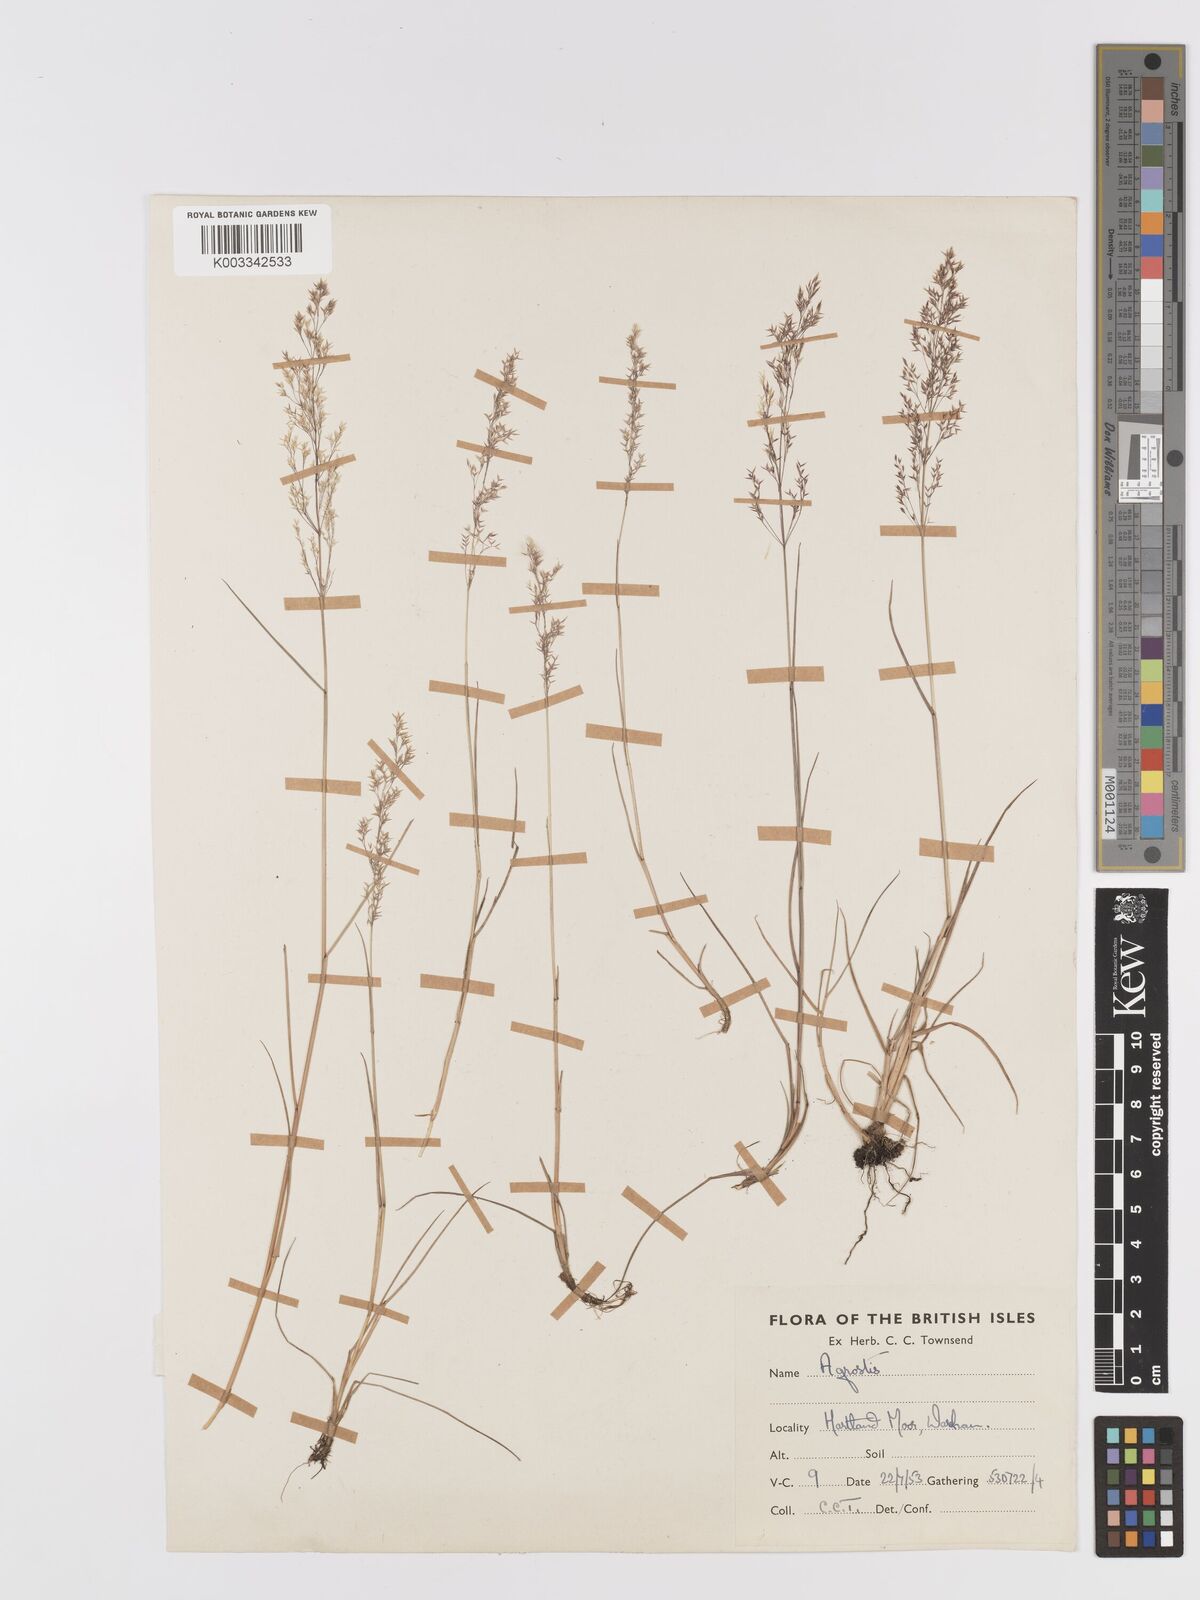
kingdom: Plantae
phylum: Tracheophyta
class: Liliopsida
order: Poales
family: Poaceae
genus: Agrostis
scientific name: Agrostis
